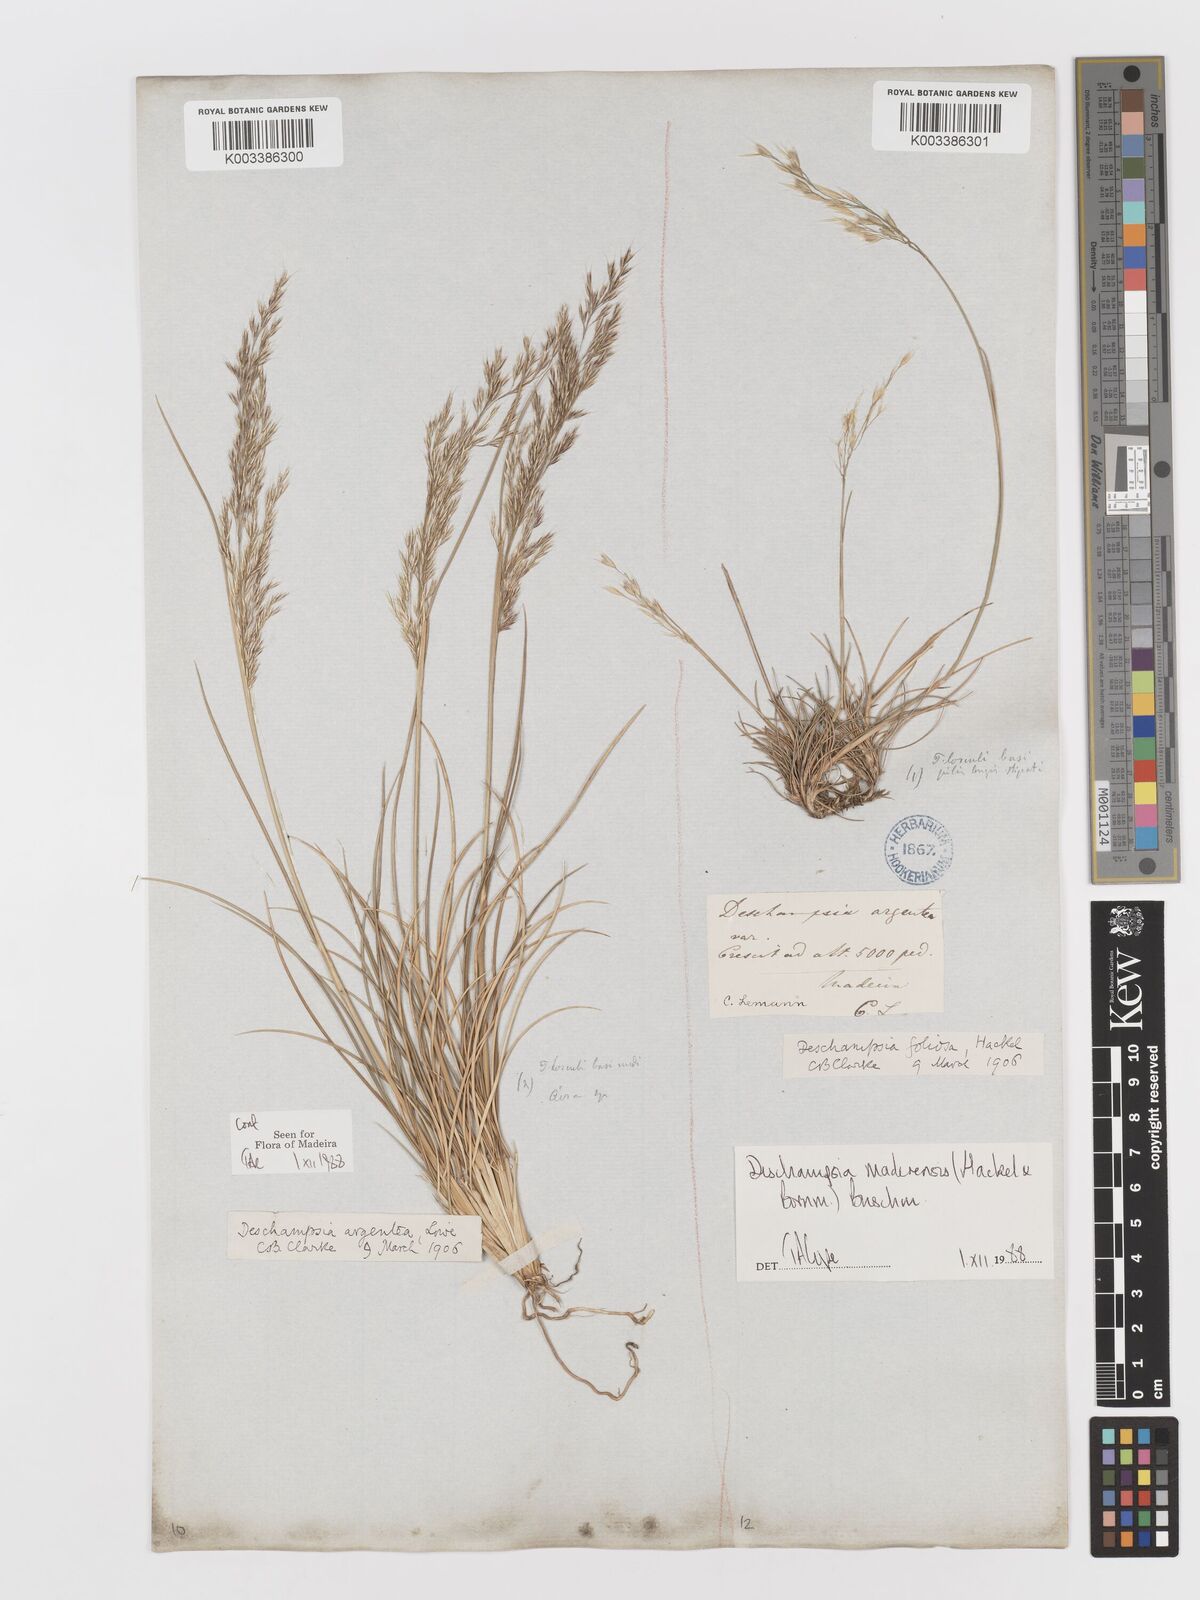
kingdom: Plantae
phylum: Tracheophyta
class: Liliopsida
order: Poales
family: Poaceae
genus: Avenella
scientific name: Avenella flexuosa
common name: Wavy hairgrass
